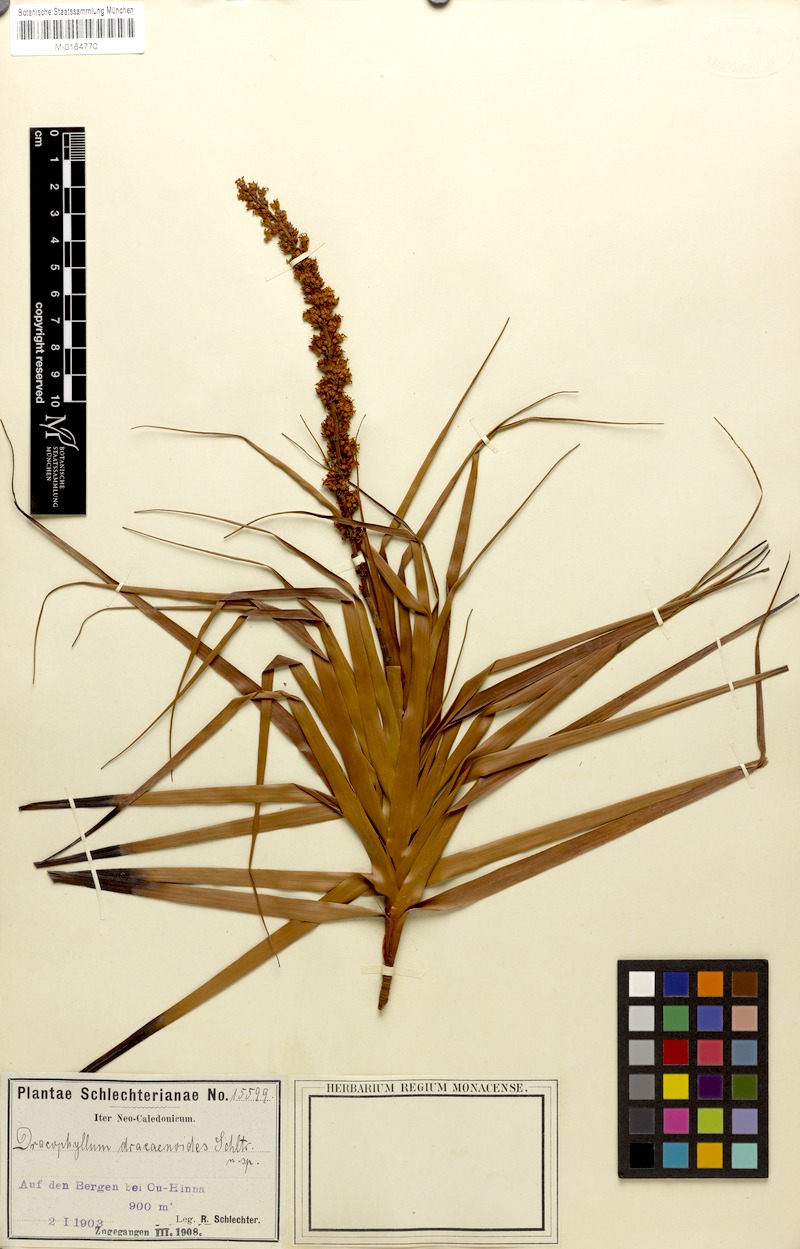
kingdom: Plantae
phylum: Tracheophyta
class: Magnoliopsida
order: Ericales
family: Ericaceae
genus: Dracophyllum
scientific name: Dracophyllum verticillatum
